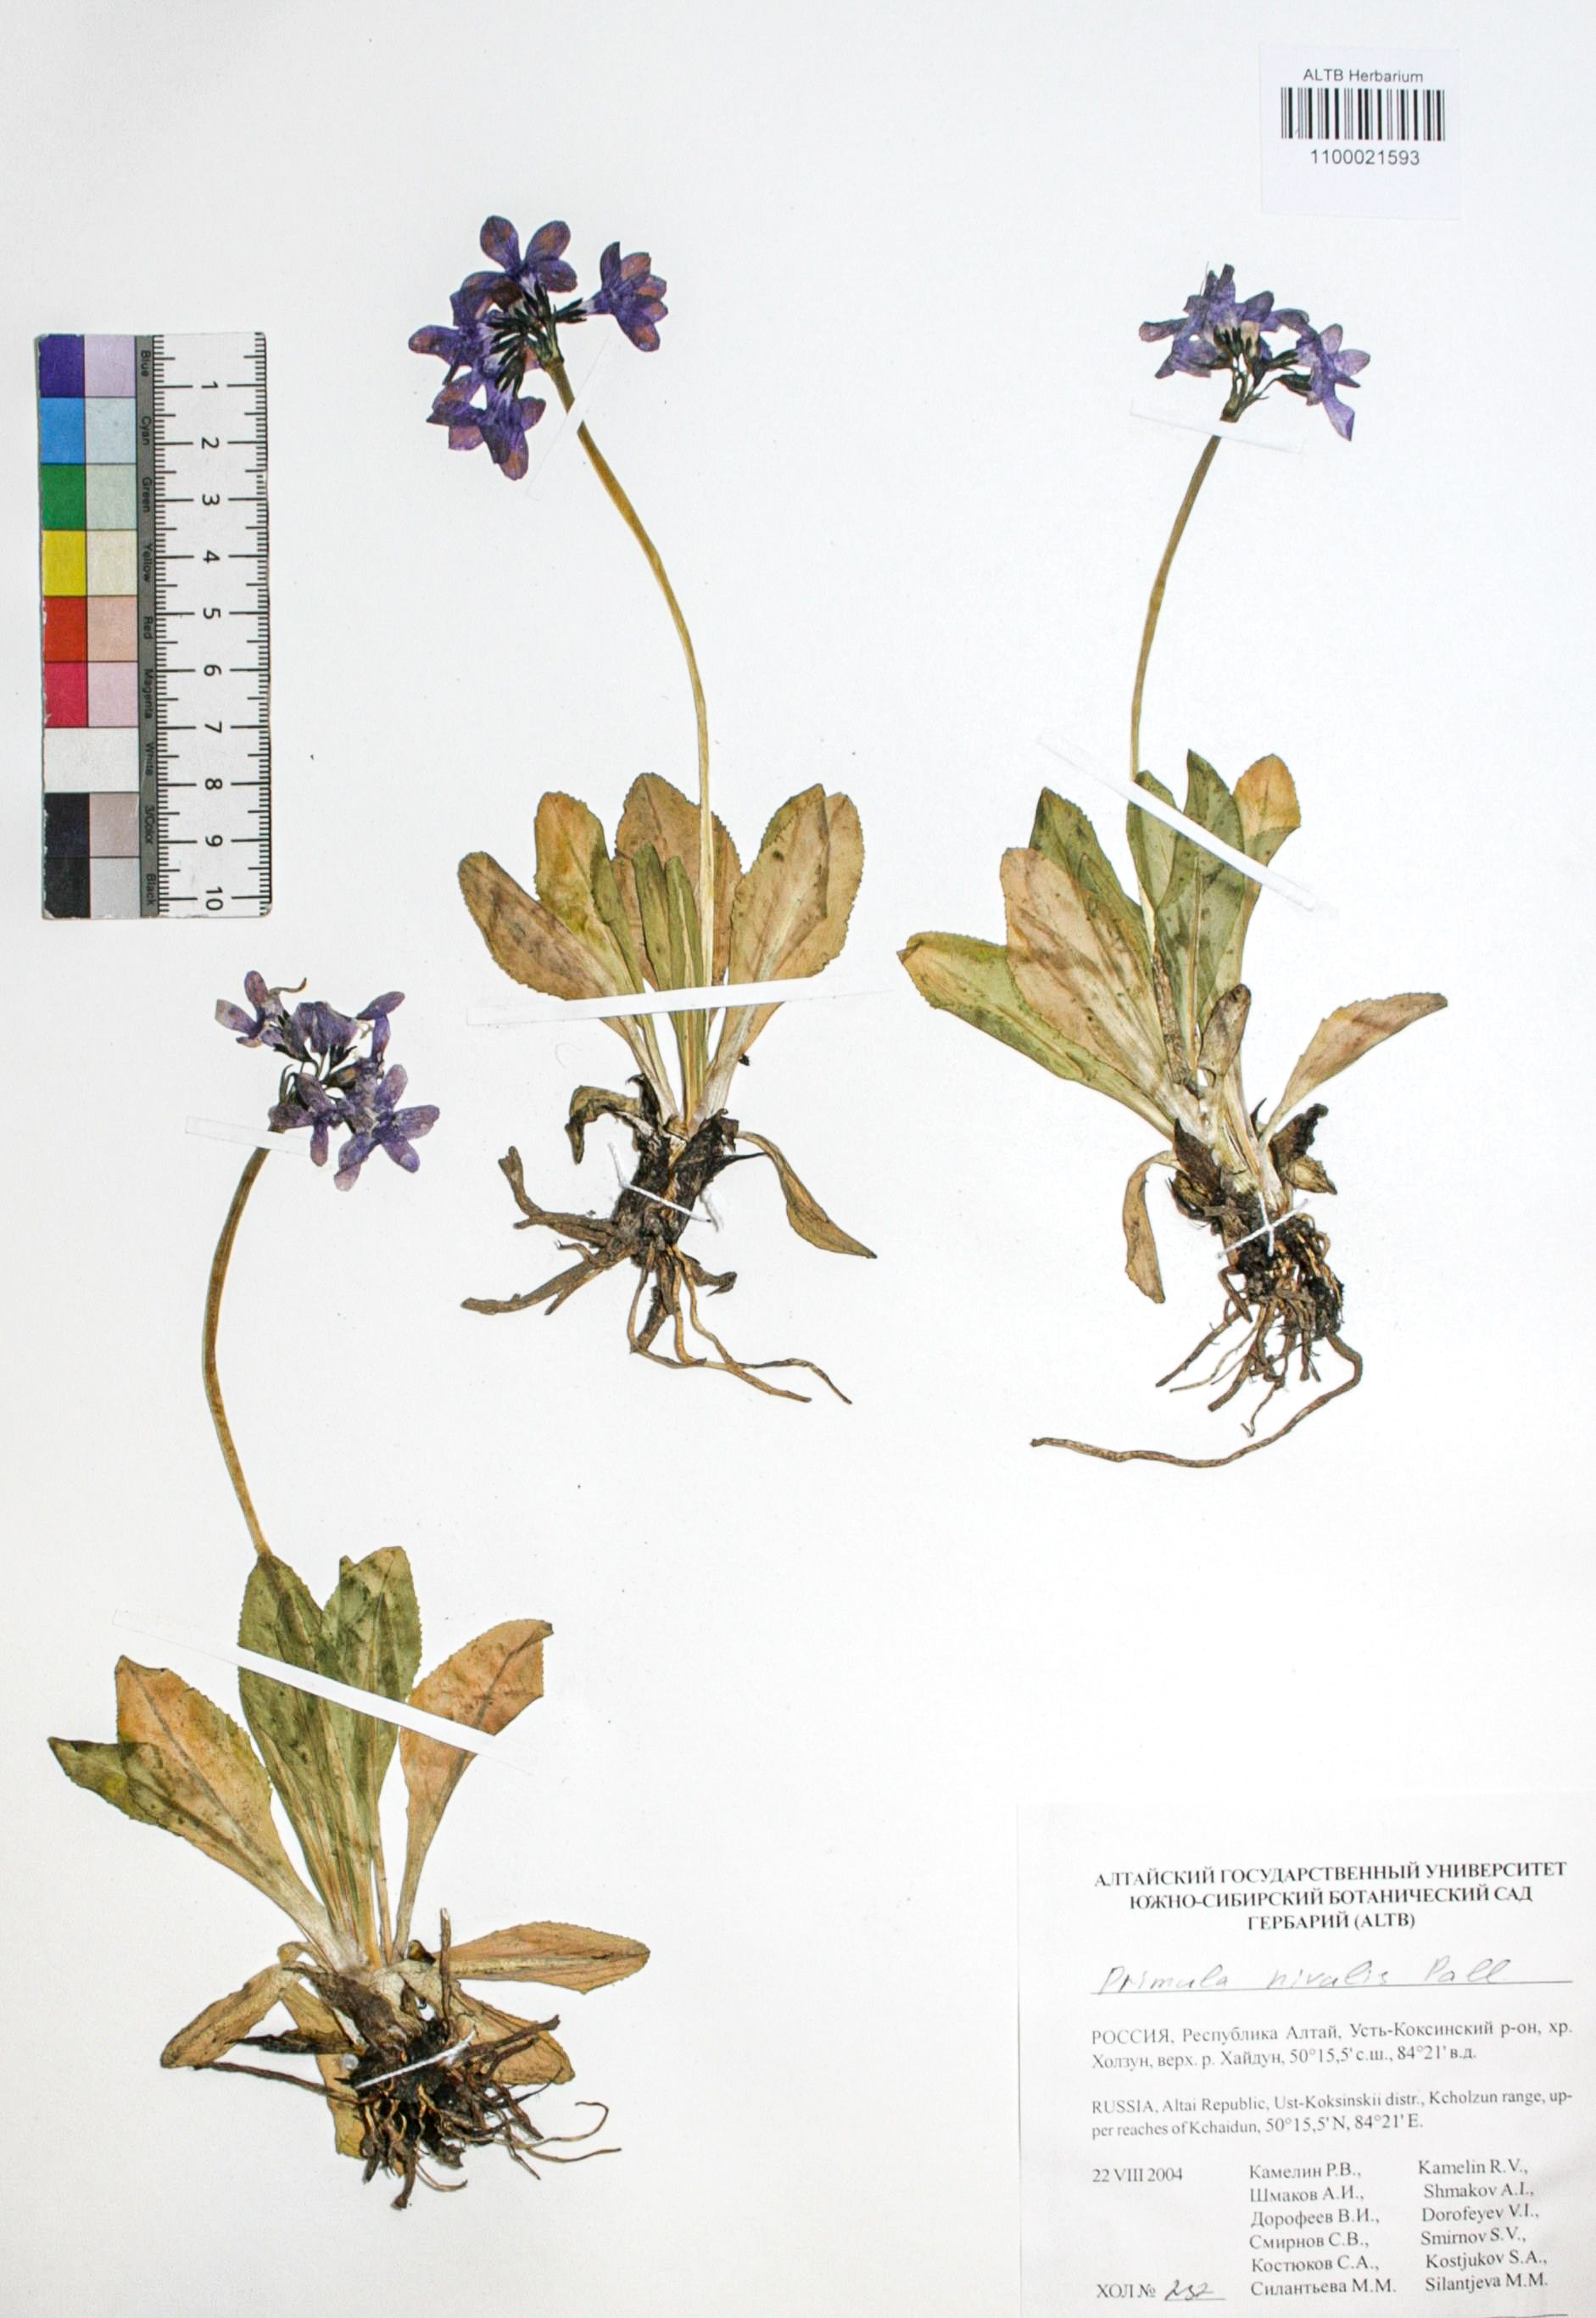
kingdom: Plantae
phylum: Tracheophyta
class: Magnoliopsida
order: Ericales
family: Primulaceae
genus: Primula
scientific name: Primula nivalis
